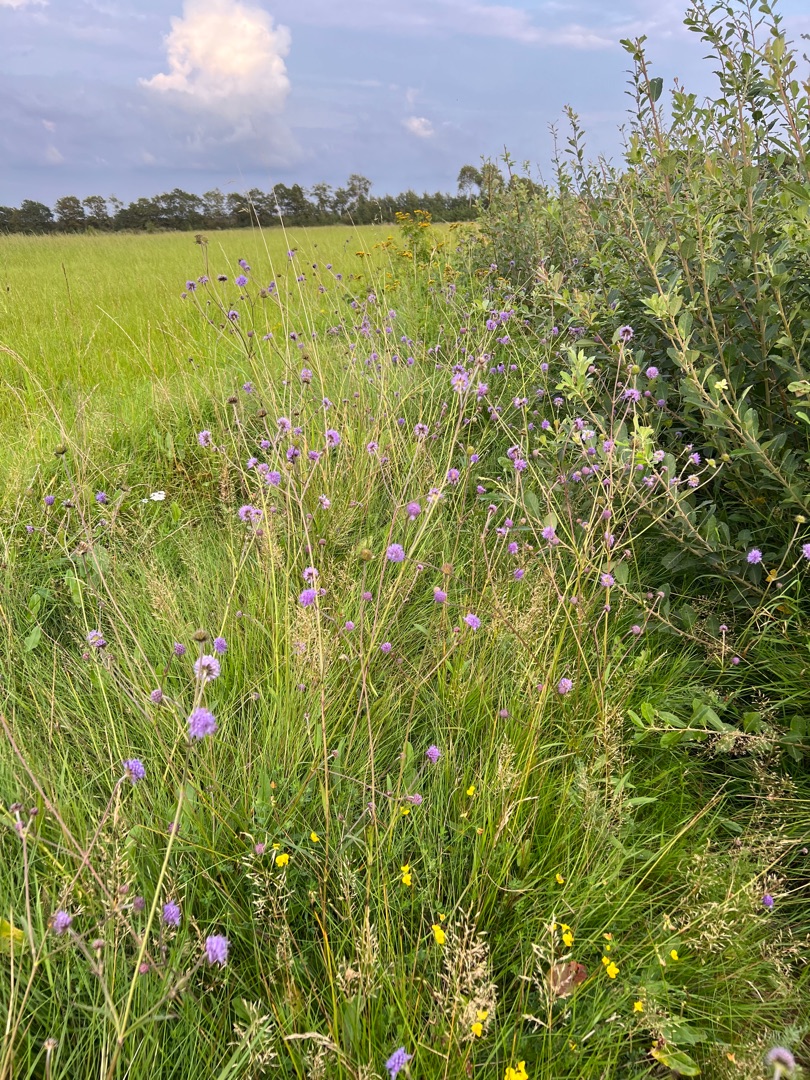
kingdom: Plantae
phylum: Tracheophyta
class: Magnoliopsida
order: Dipsacales
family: Caprifoliaceae
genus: Succisa
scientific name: Succisa pratensis
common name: Djævelsbid
